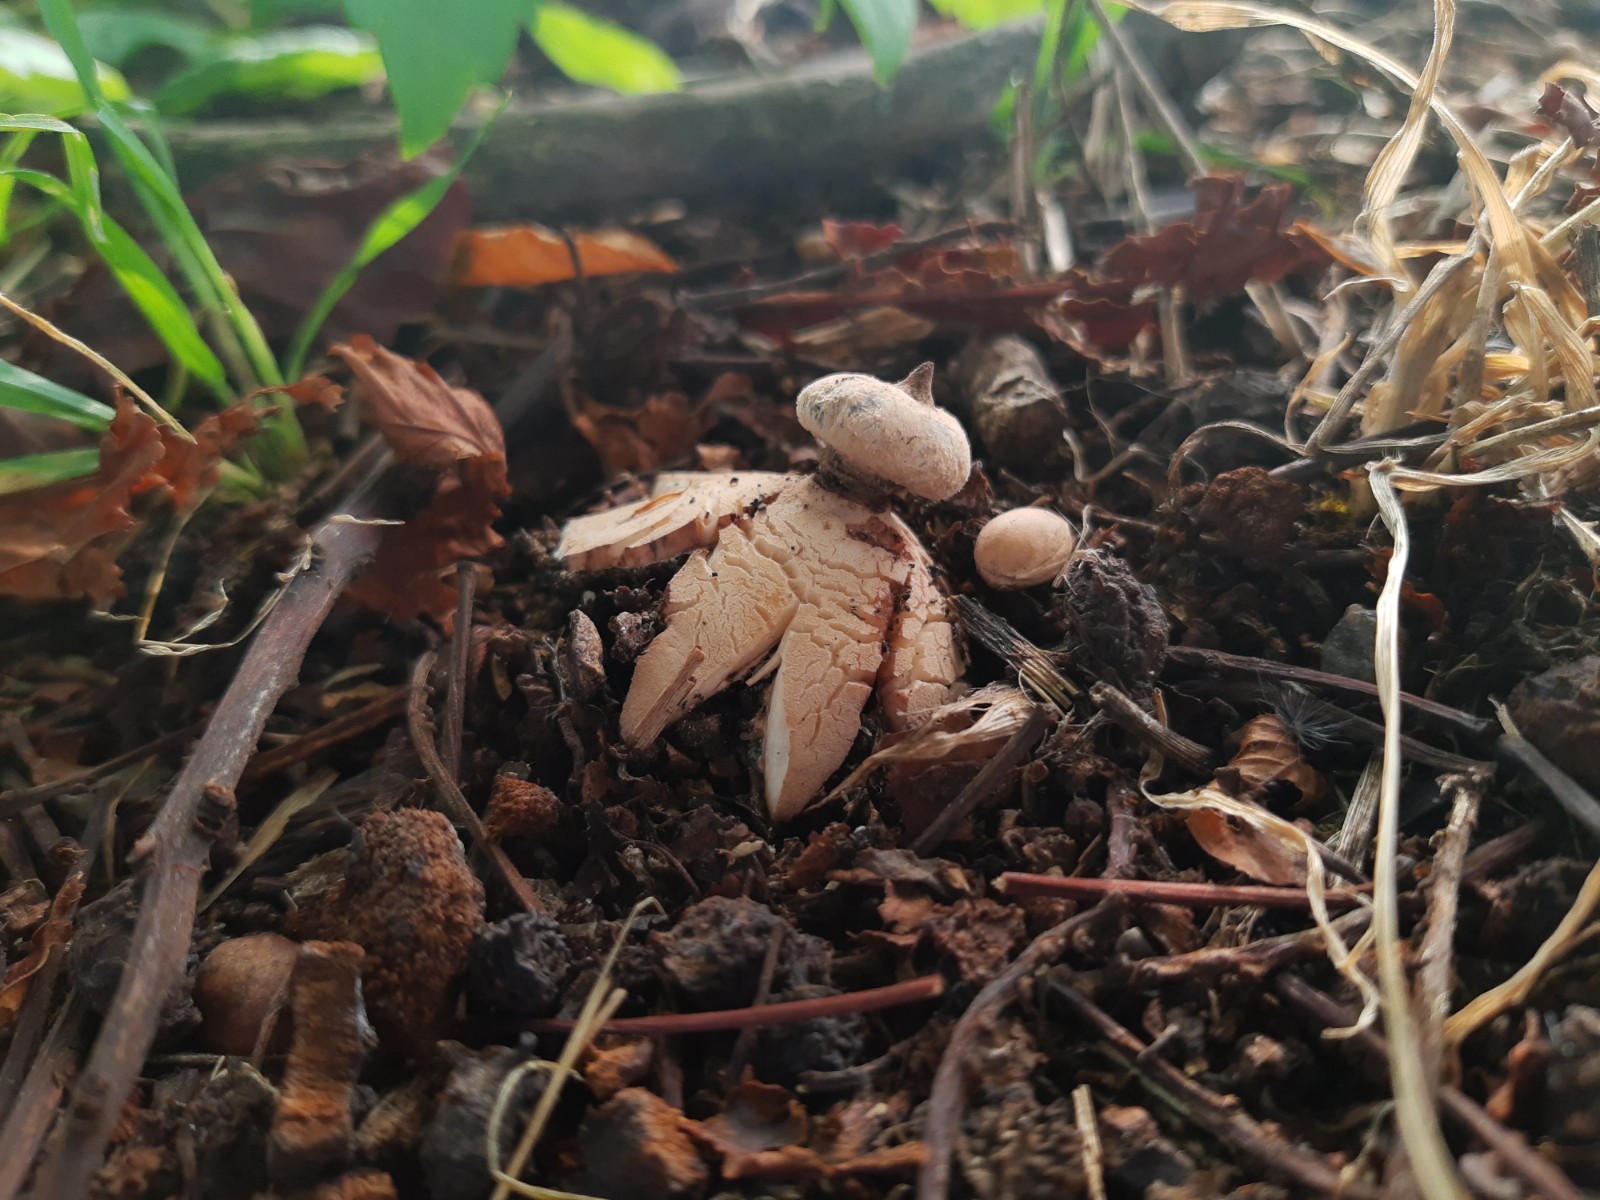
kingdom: Fungi
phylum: Basidiomycota
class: Agaricomycetes
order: Geastrales
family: Geastraceae
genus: Geastrum
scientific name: Geastrum striatum
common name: krave-stjernebold
